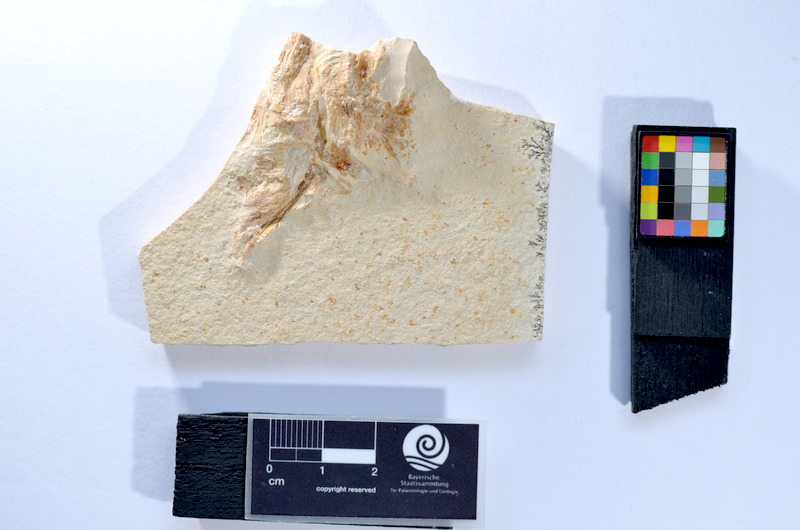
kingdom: Animalia
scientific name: Animalia
